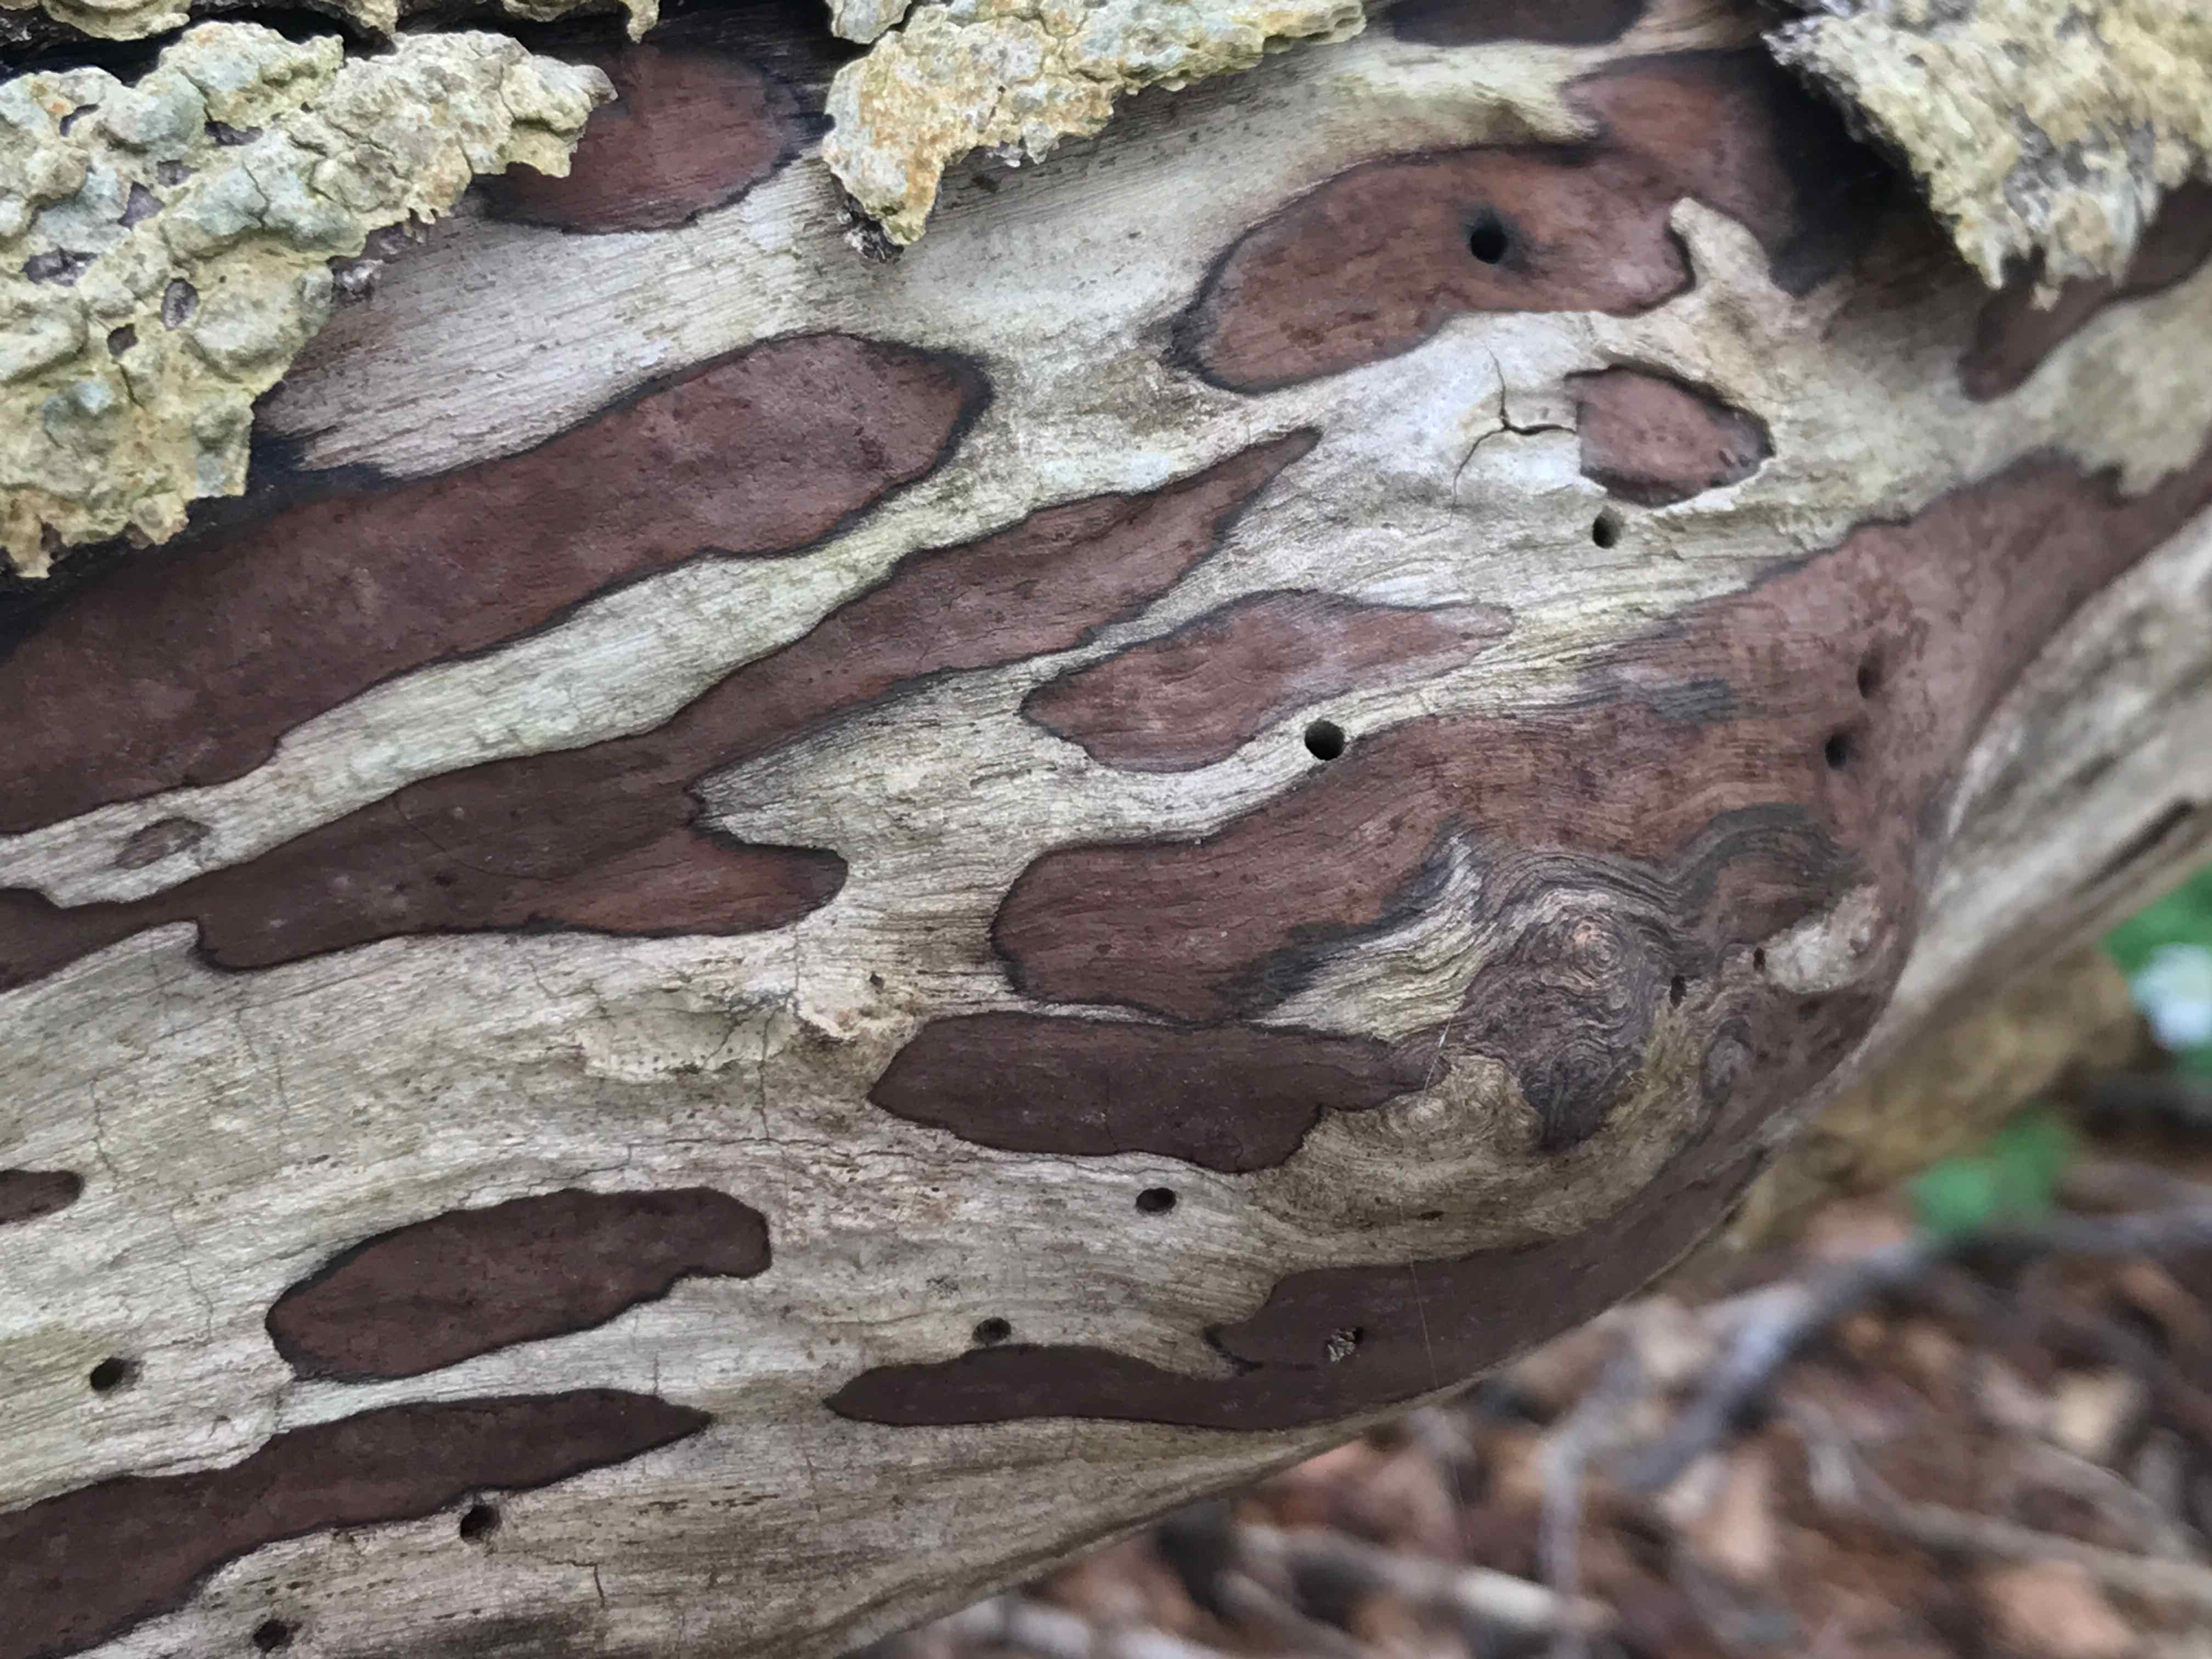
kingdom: Fungi
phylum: Ascomycota
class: Sordariomycetes
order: Xylariales
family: Hypoxylaceae
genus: Hypoxylon
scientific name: Hypoxylon petriniae
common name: nedsænket kulbær
